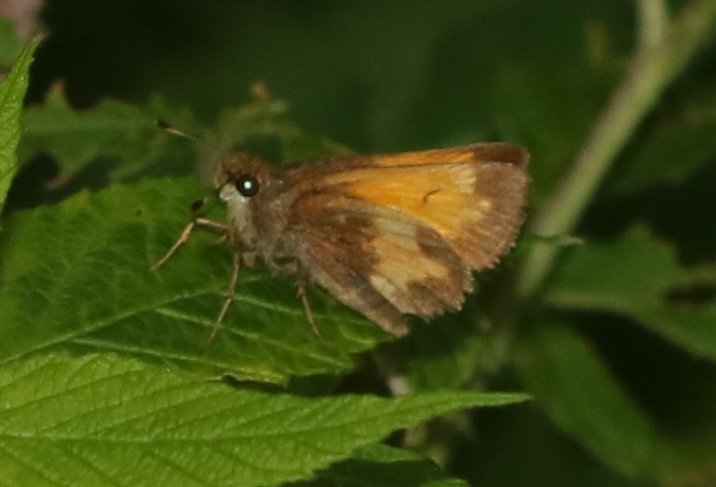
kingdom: Animalia
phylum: Arthropoda
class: Insecta
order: Lepidoptera
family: Hesperiidae
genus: Lon
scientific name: Lon hobomok
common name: Hobomok Skipper
